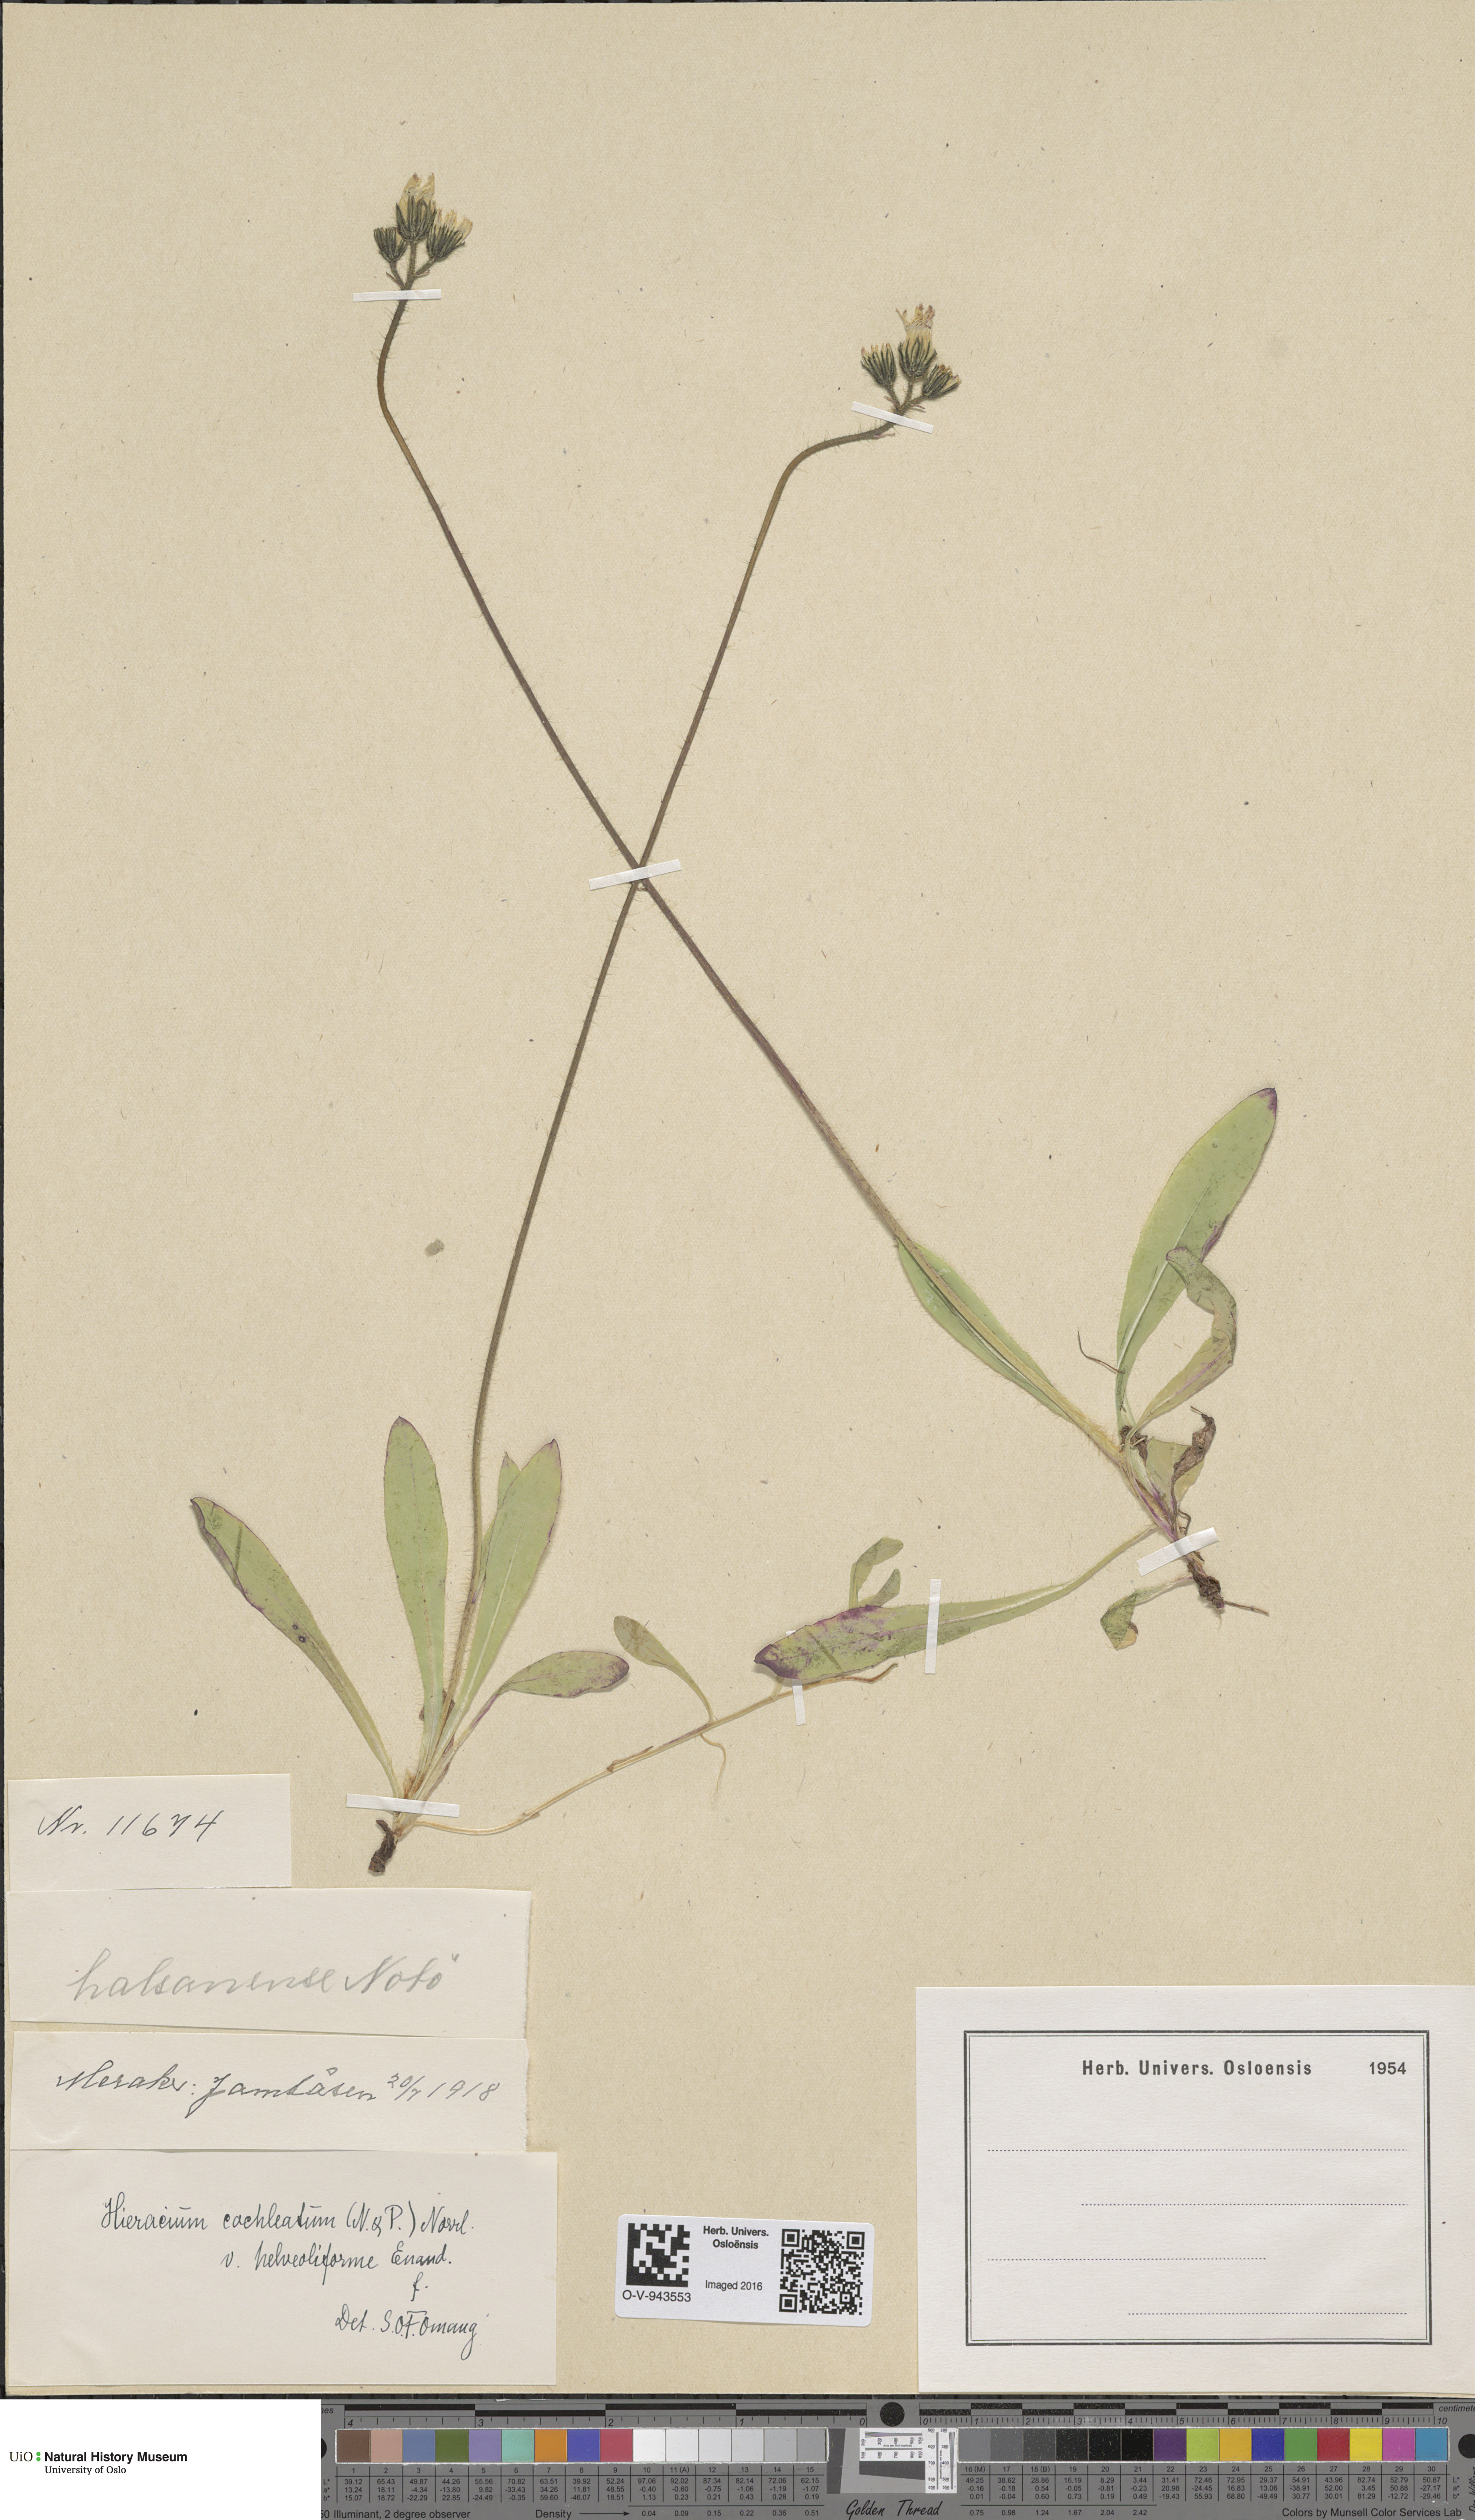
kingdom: Plantae
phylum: Tracheophyta
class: Magnoliopsida
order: Asterales
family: Asteraceae
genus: Pilosella
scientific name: Pilosella floribunda
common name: Glaucous hawkweed
